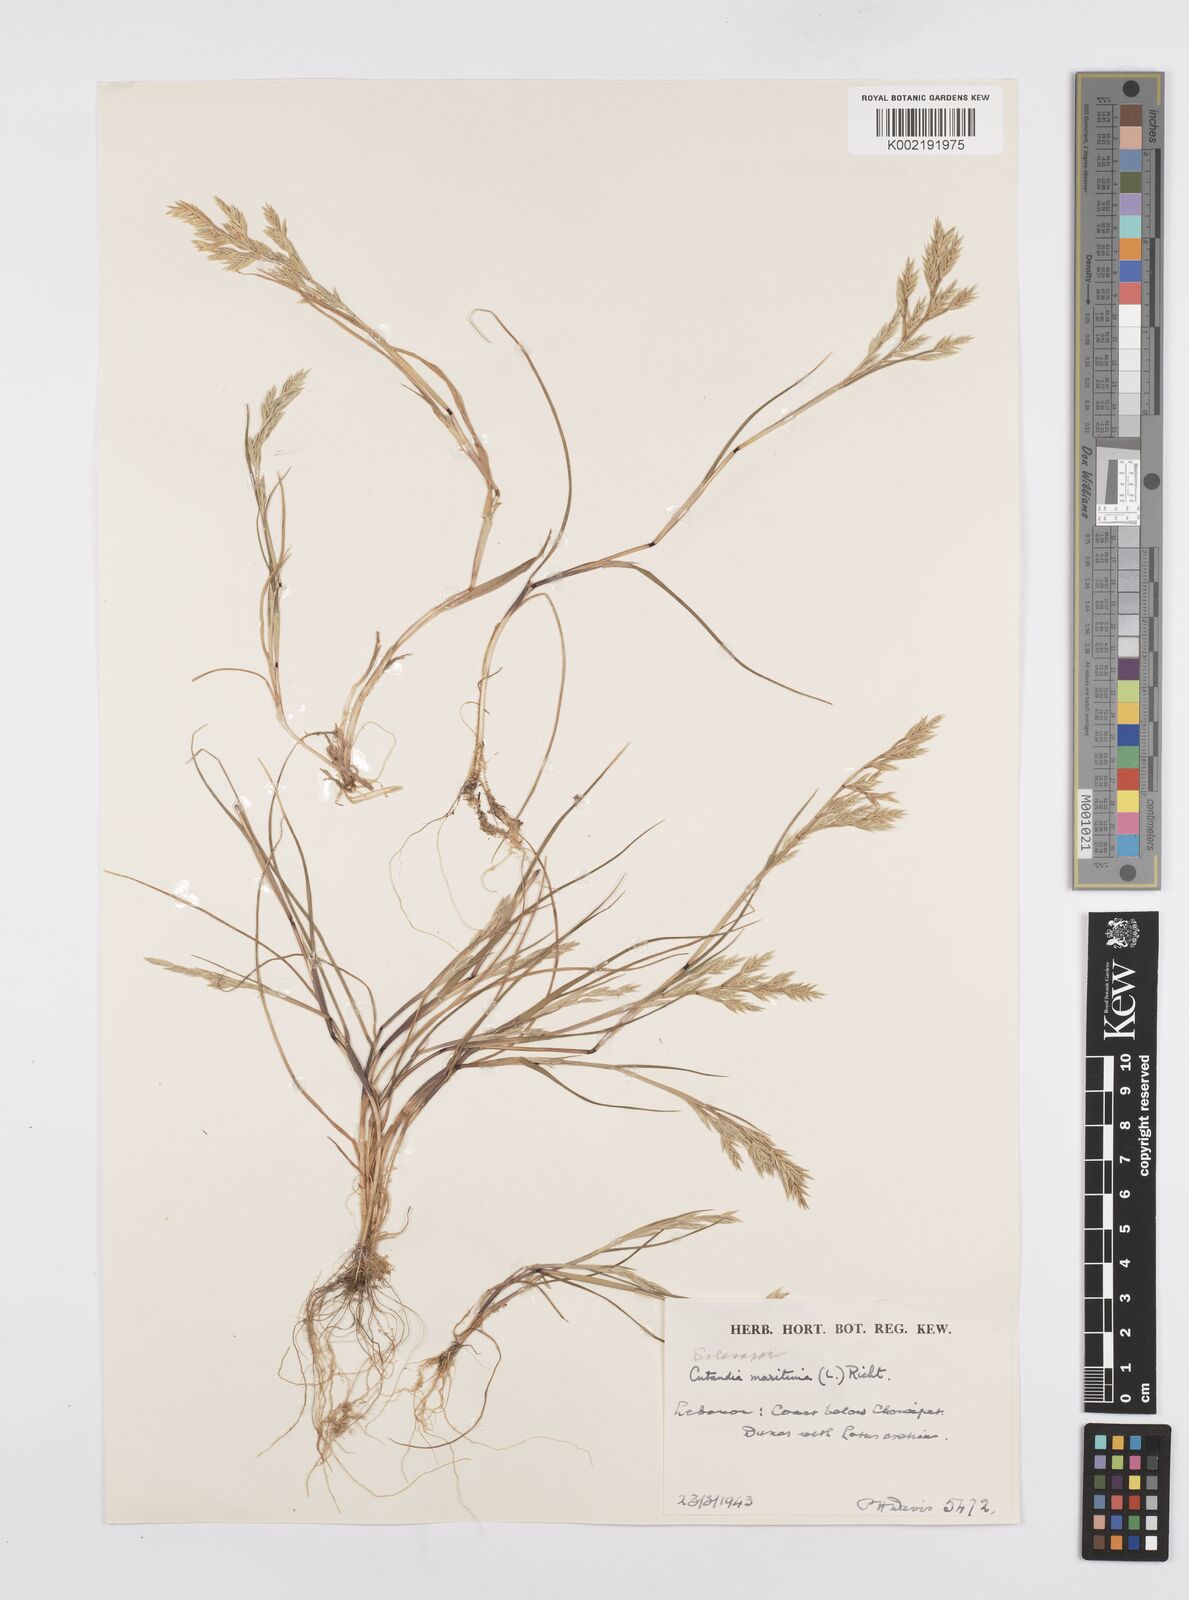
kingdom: Plantae
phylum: Tracheophyta
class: Liliopsida
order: Poales
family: Poaceae
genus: Cutandia
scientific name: Cutandia maritima
